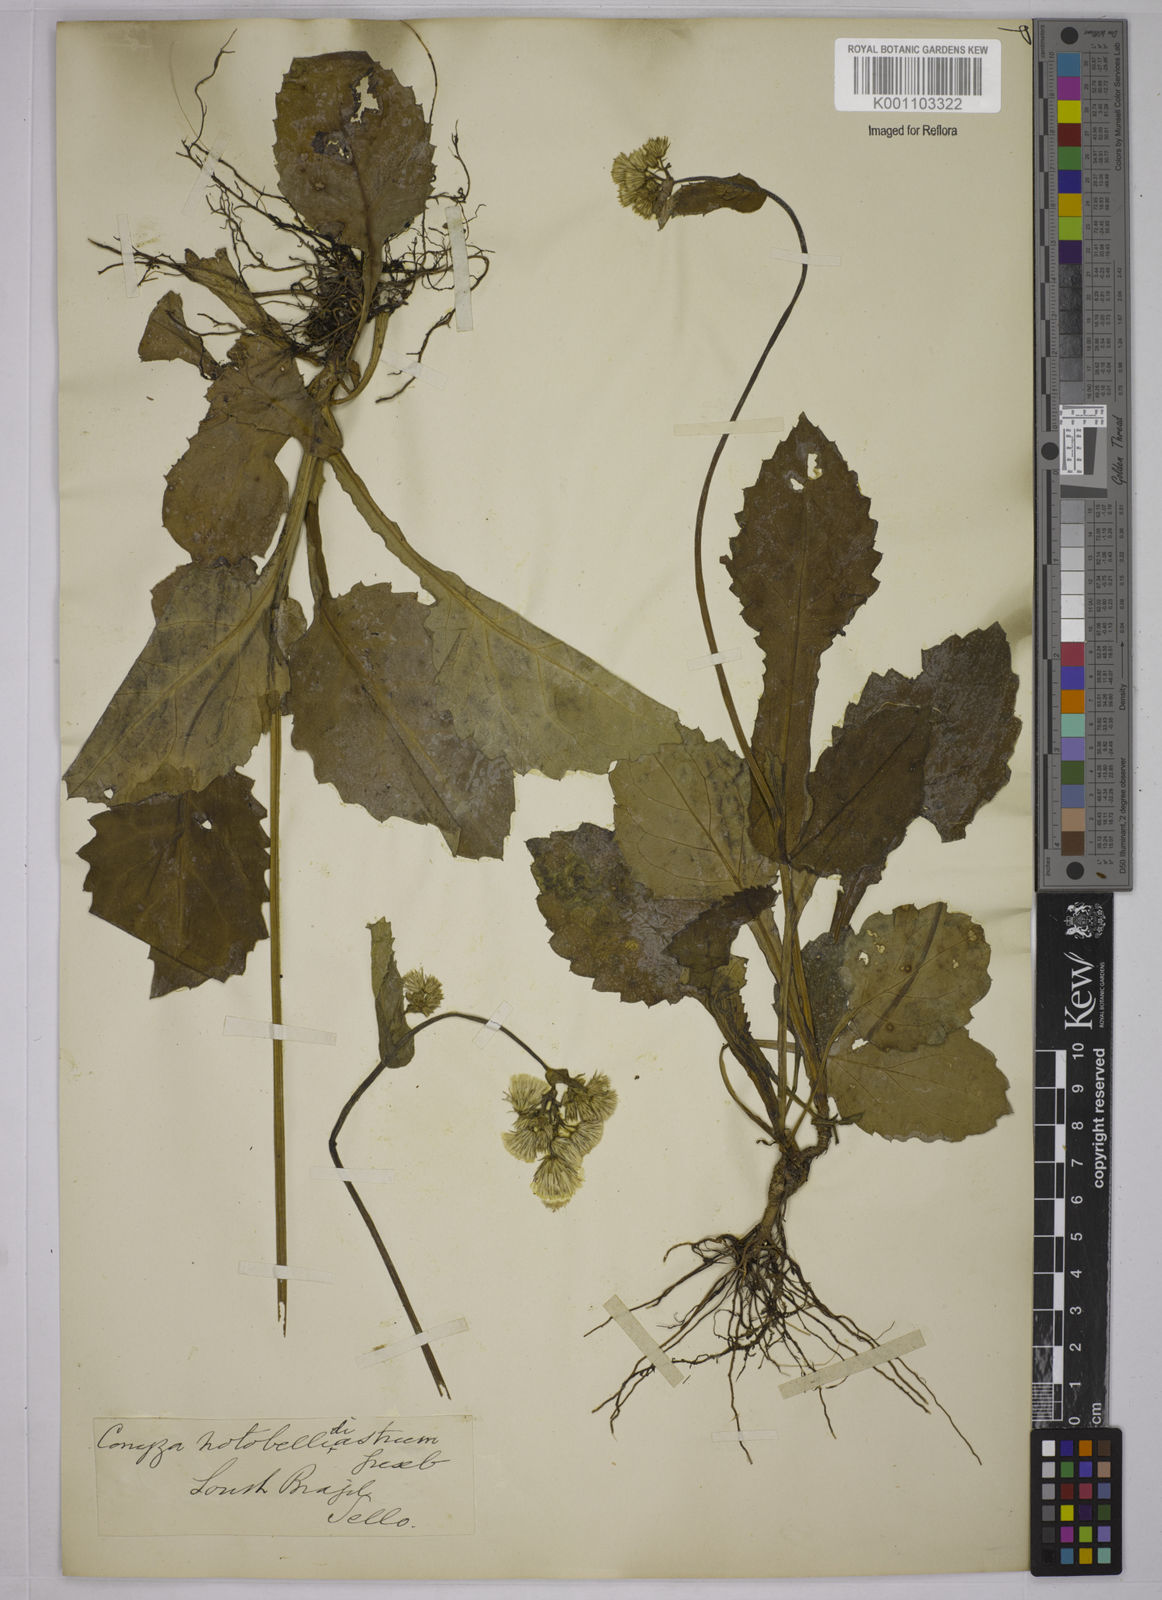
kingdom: Plantae
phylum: Tracheophyta
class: Magnoliopsida
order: Asterales
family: Asteraceae
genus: Exostigma
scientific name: Exostigma notobellidiastrum
